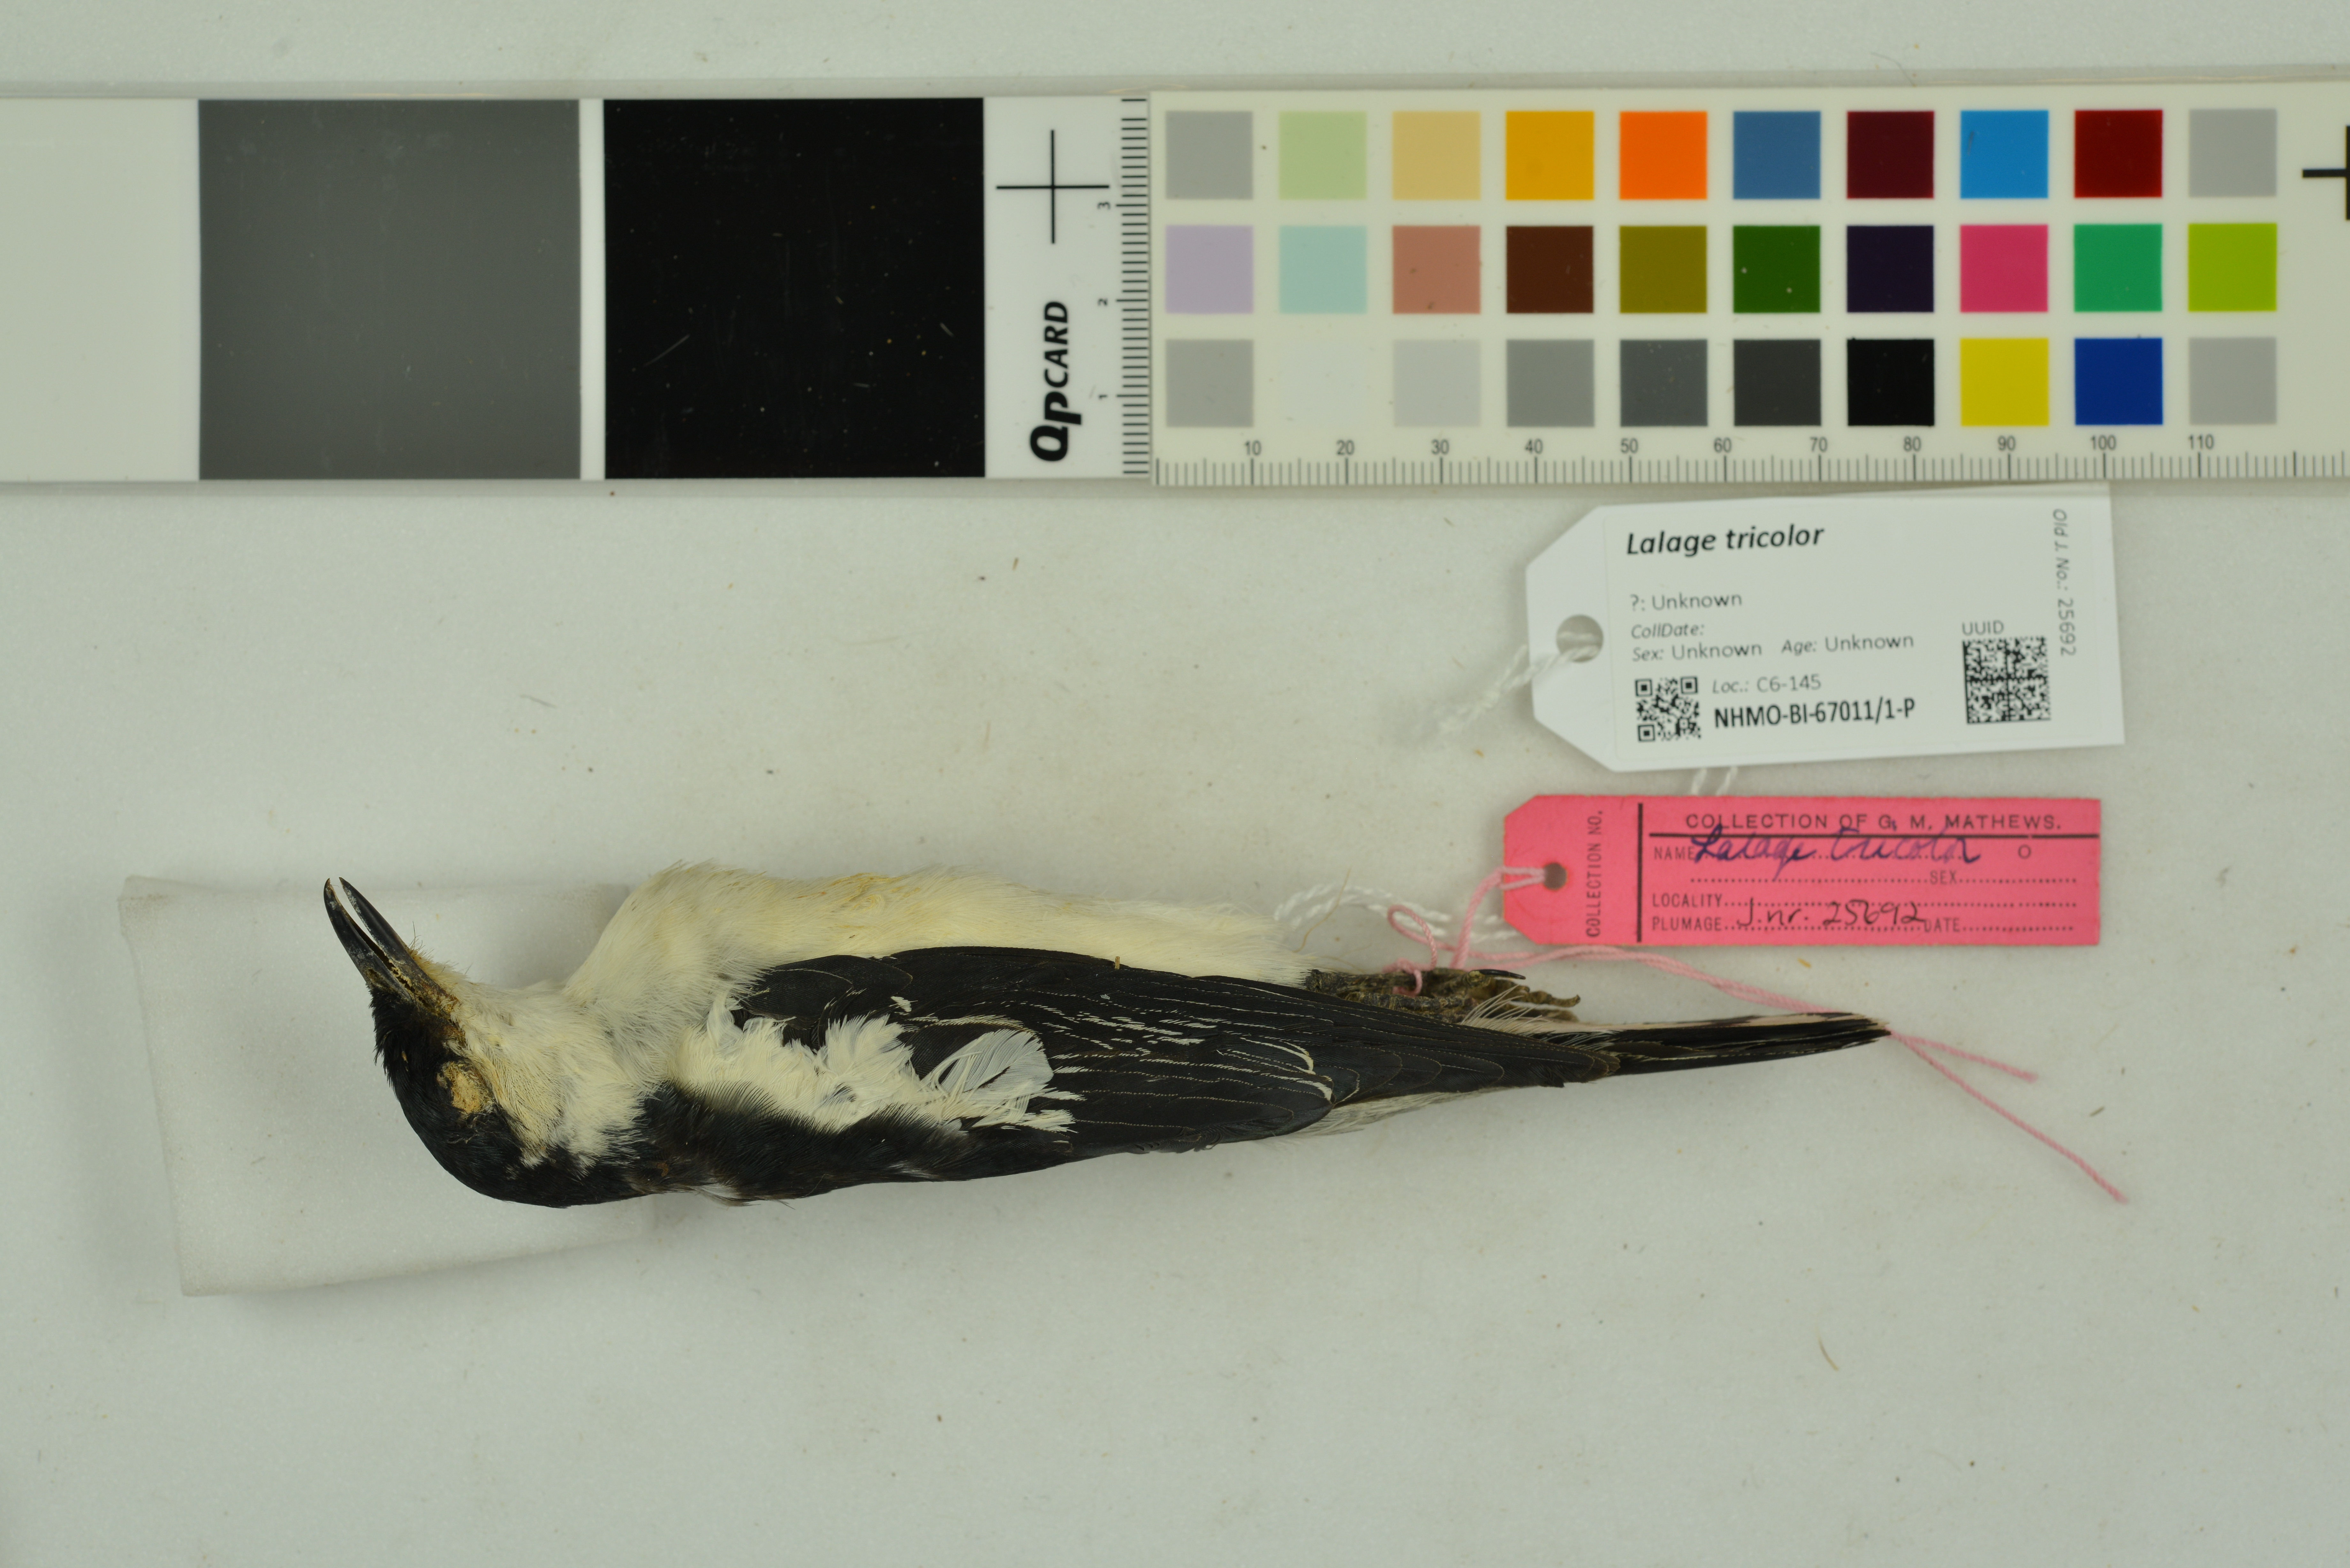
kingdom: Animalia
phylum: Chordata
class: Aves
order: Passeriformes
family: Campephagidae
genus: Lalage
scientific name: Lalage tricolor
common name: White-winged triller
